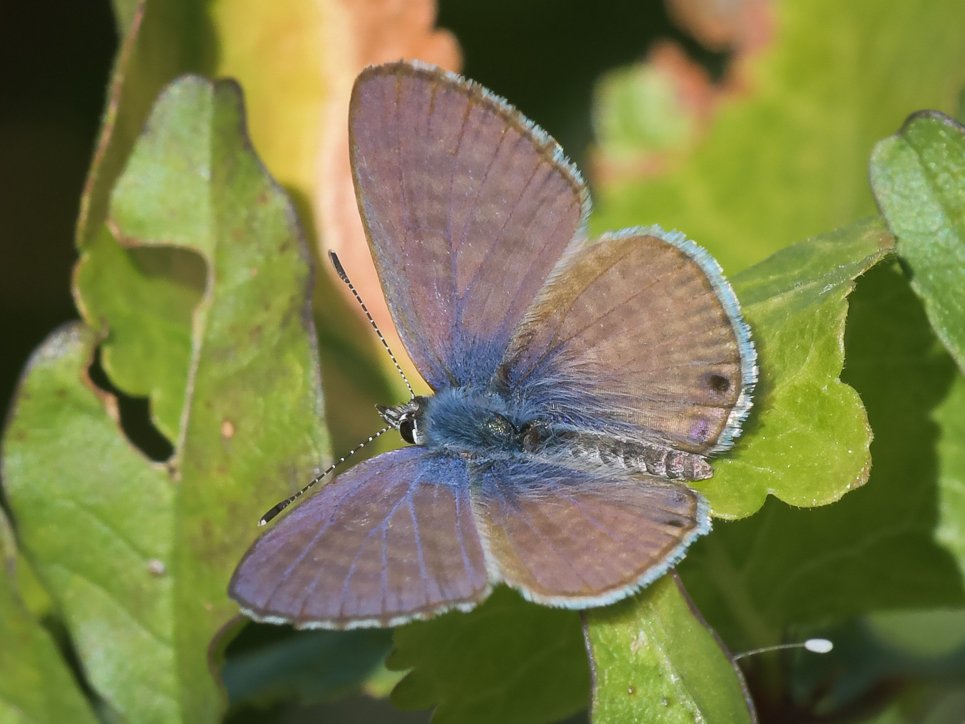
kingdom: Animalia
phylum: Arthropoda
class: Insecta
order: Lepidoptera
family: Lycaenidae
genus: Leptotes
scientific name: Leptotes marina
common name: Marine Blue
